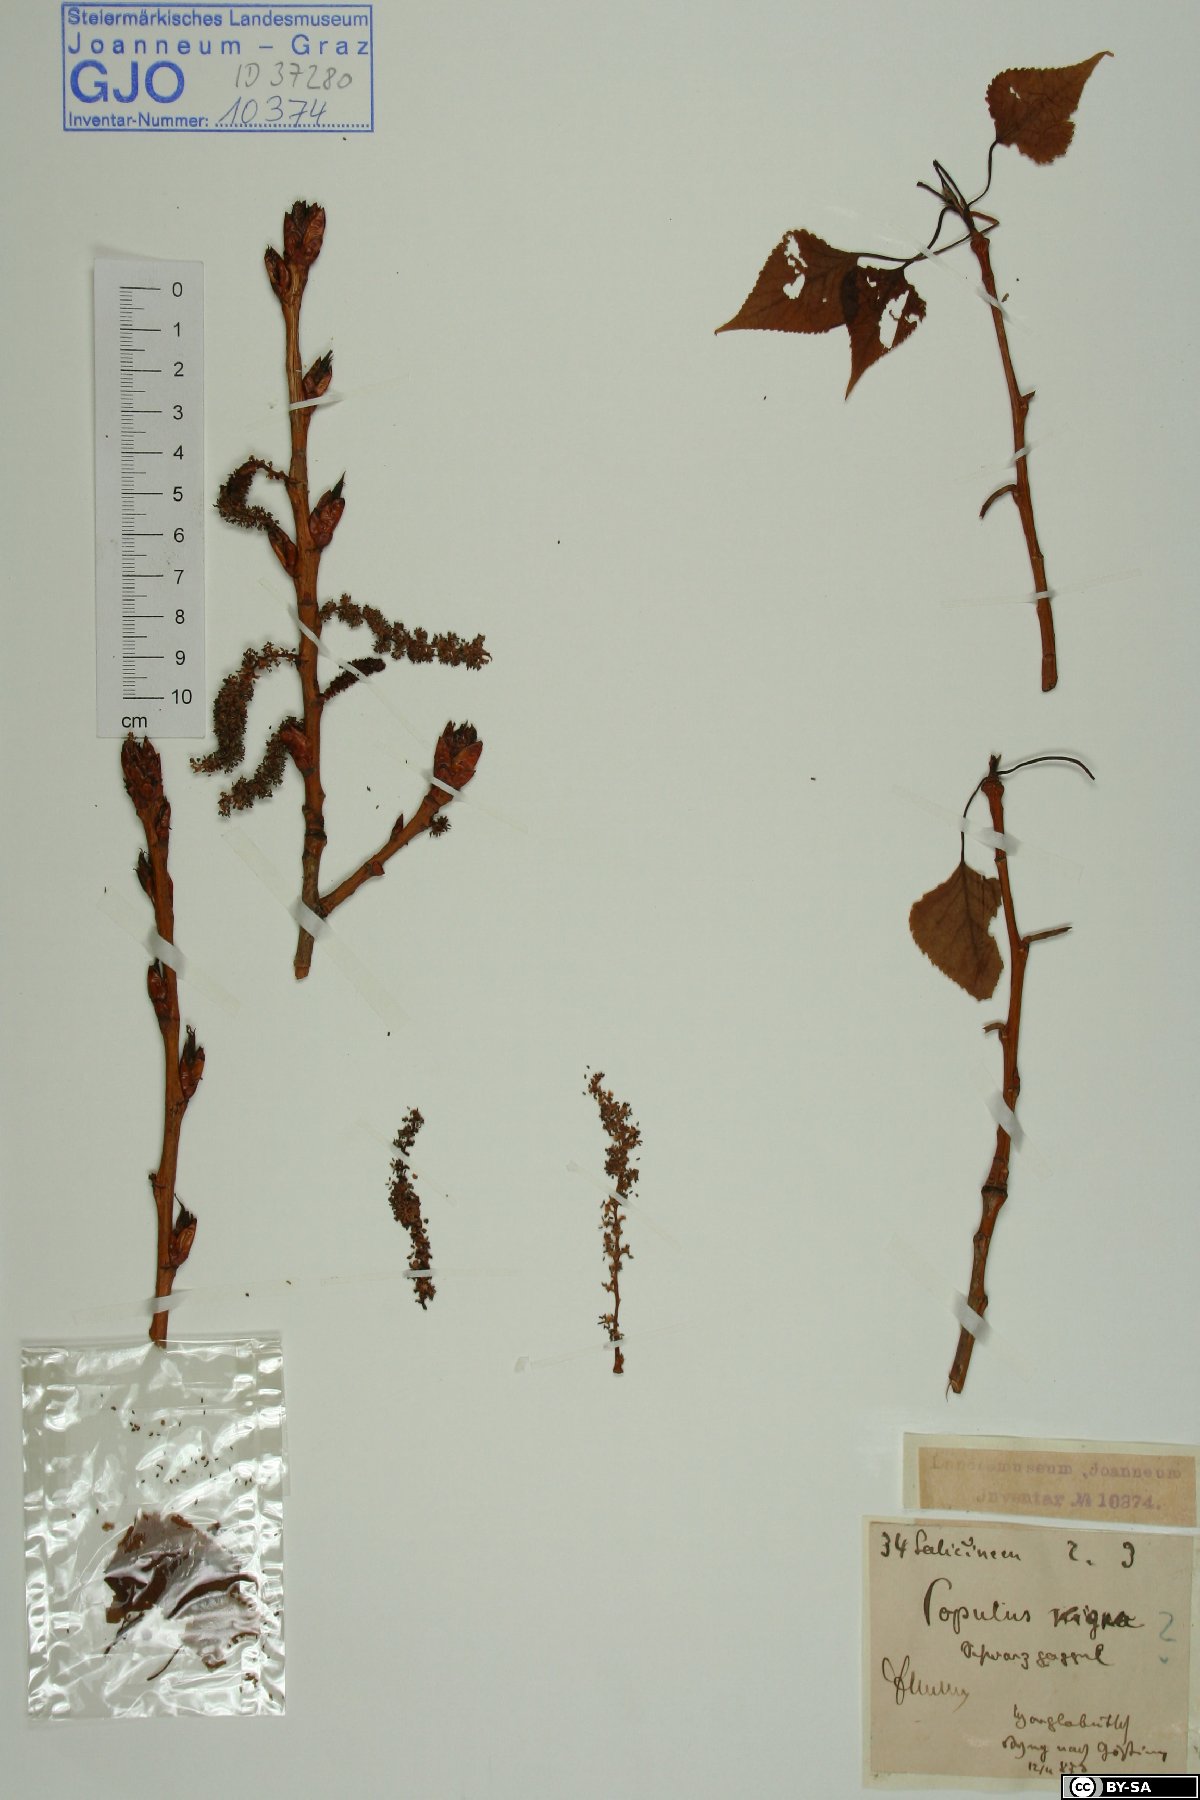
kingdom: Plantae
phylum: Tracheophyta
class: Magnoliopsida
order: Malpighiales
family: Salicaceae
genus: Populus
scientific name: Populus nigra
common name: Black poplar
